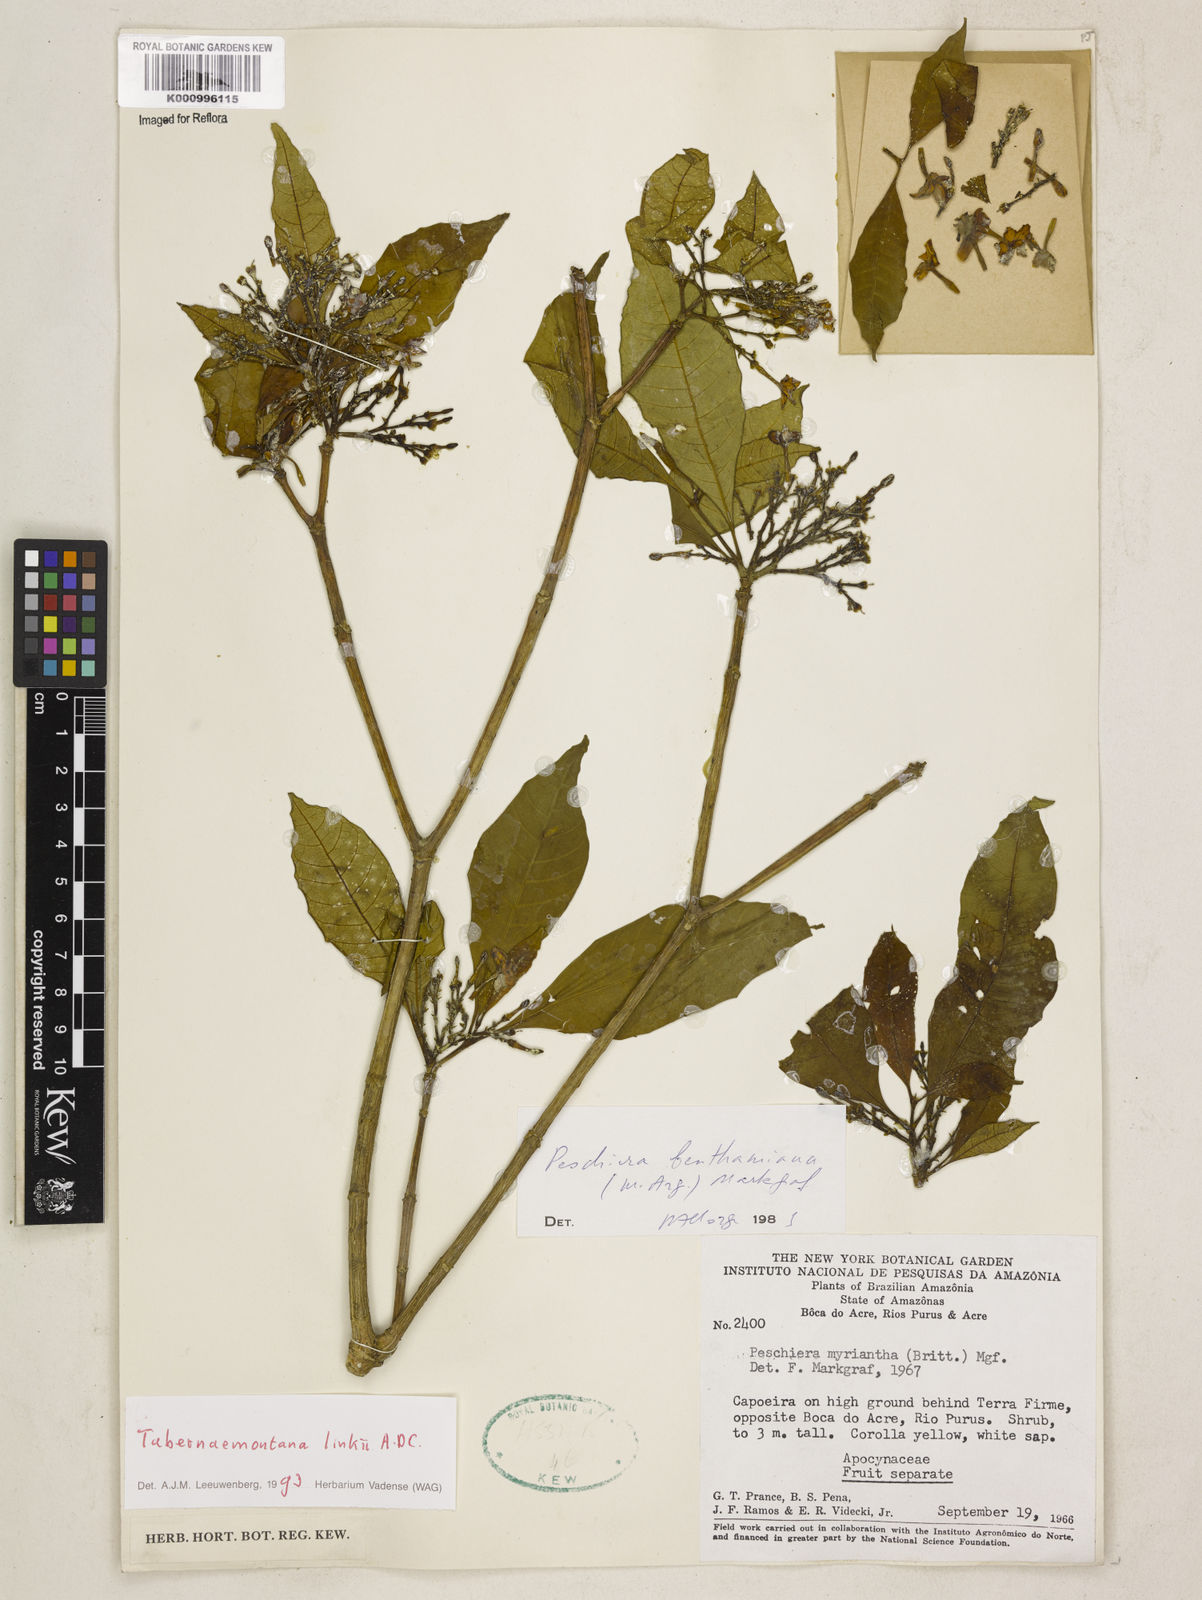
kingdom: Plantae
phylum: Tracheophyta
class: Magnoliopsida
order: Gentianales
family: Apocynaceae
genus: Tabernaemontana
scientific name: Tabernaemontana linkii
